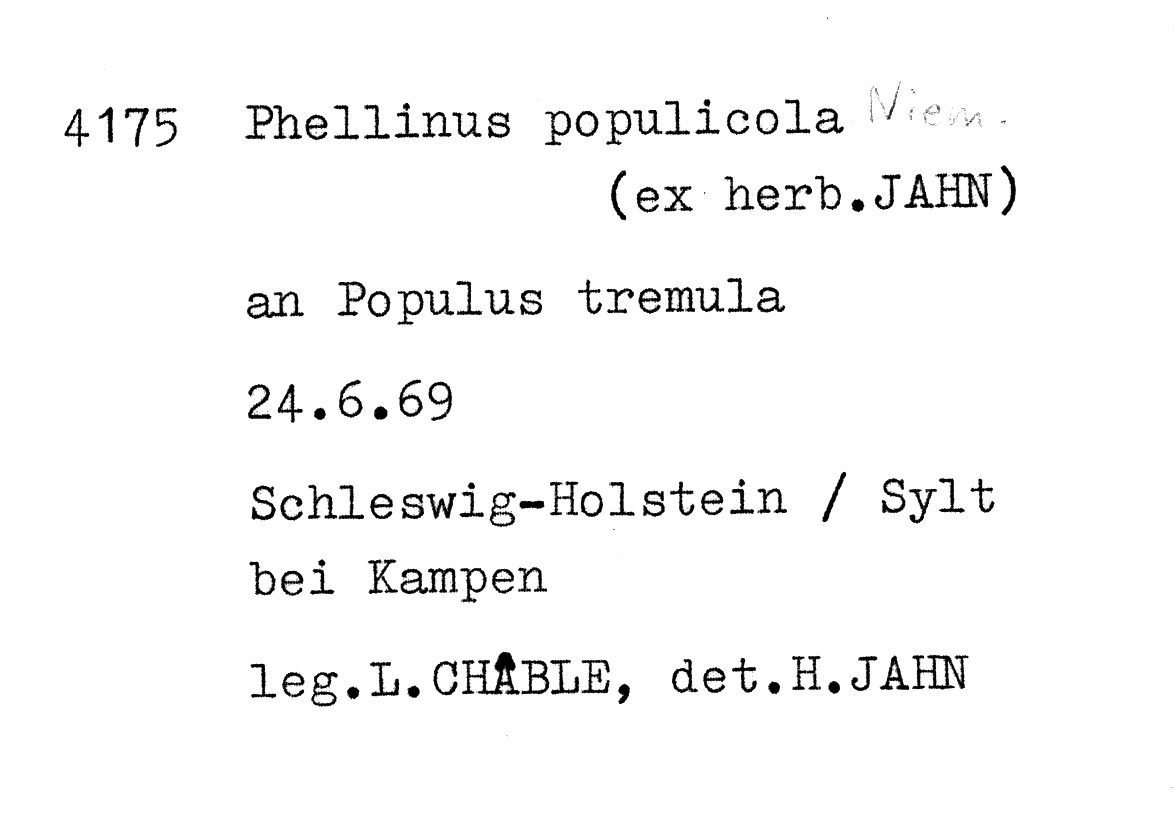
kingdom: Plantae
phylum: Tracheophyta
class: Magnoliopsida
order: Malpighiales
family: Salicaceae
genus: Populus
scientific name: Populus tremula
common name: European aspen
